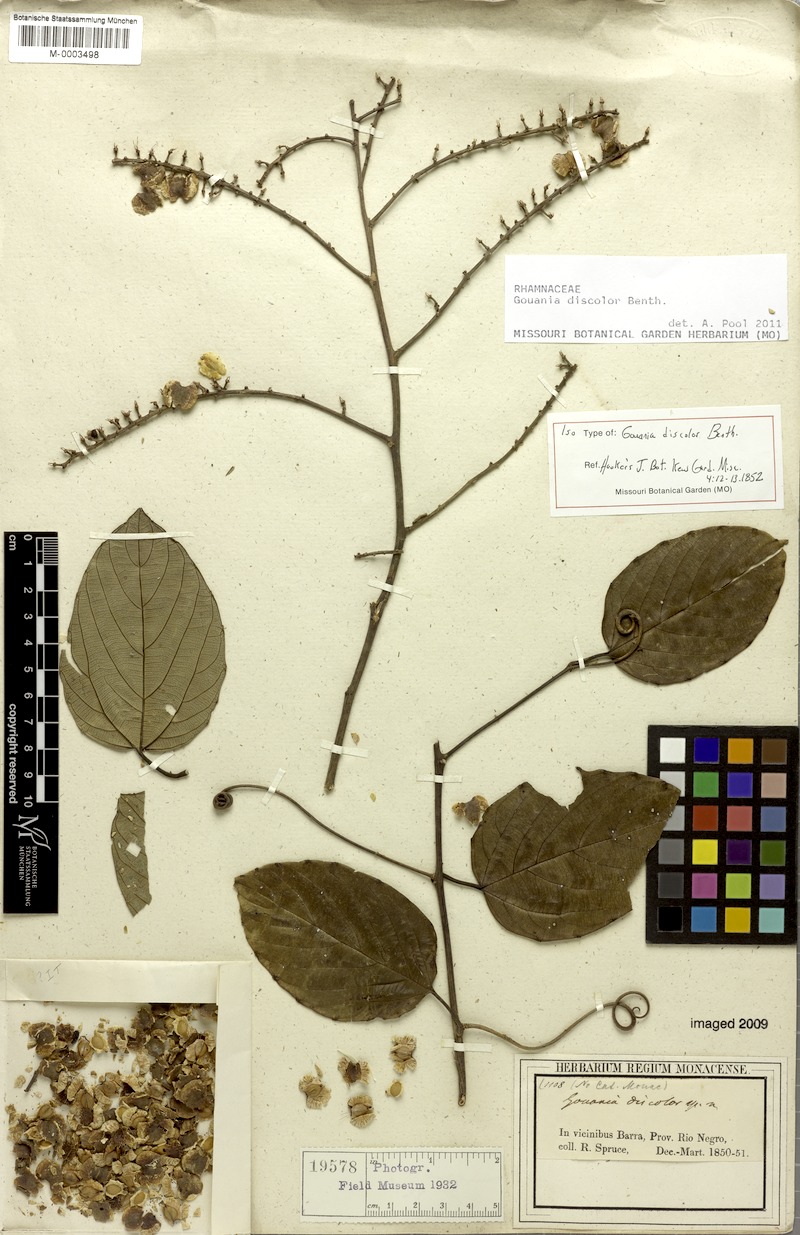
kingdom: Plantae
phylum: Tracheophyta
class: Magnoliopsida
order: Rosales
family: Rhamnaceae
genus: Gouania
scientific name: Gouania discolor
